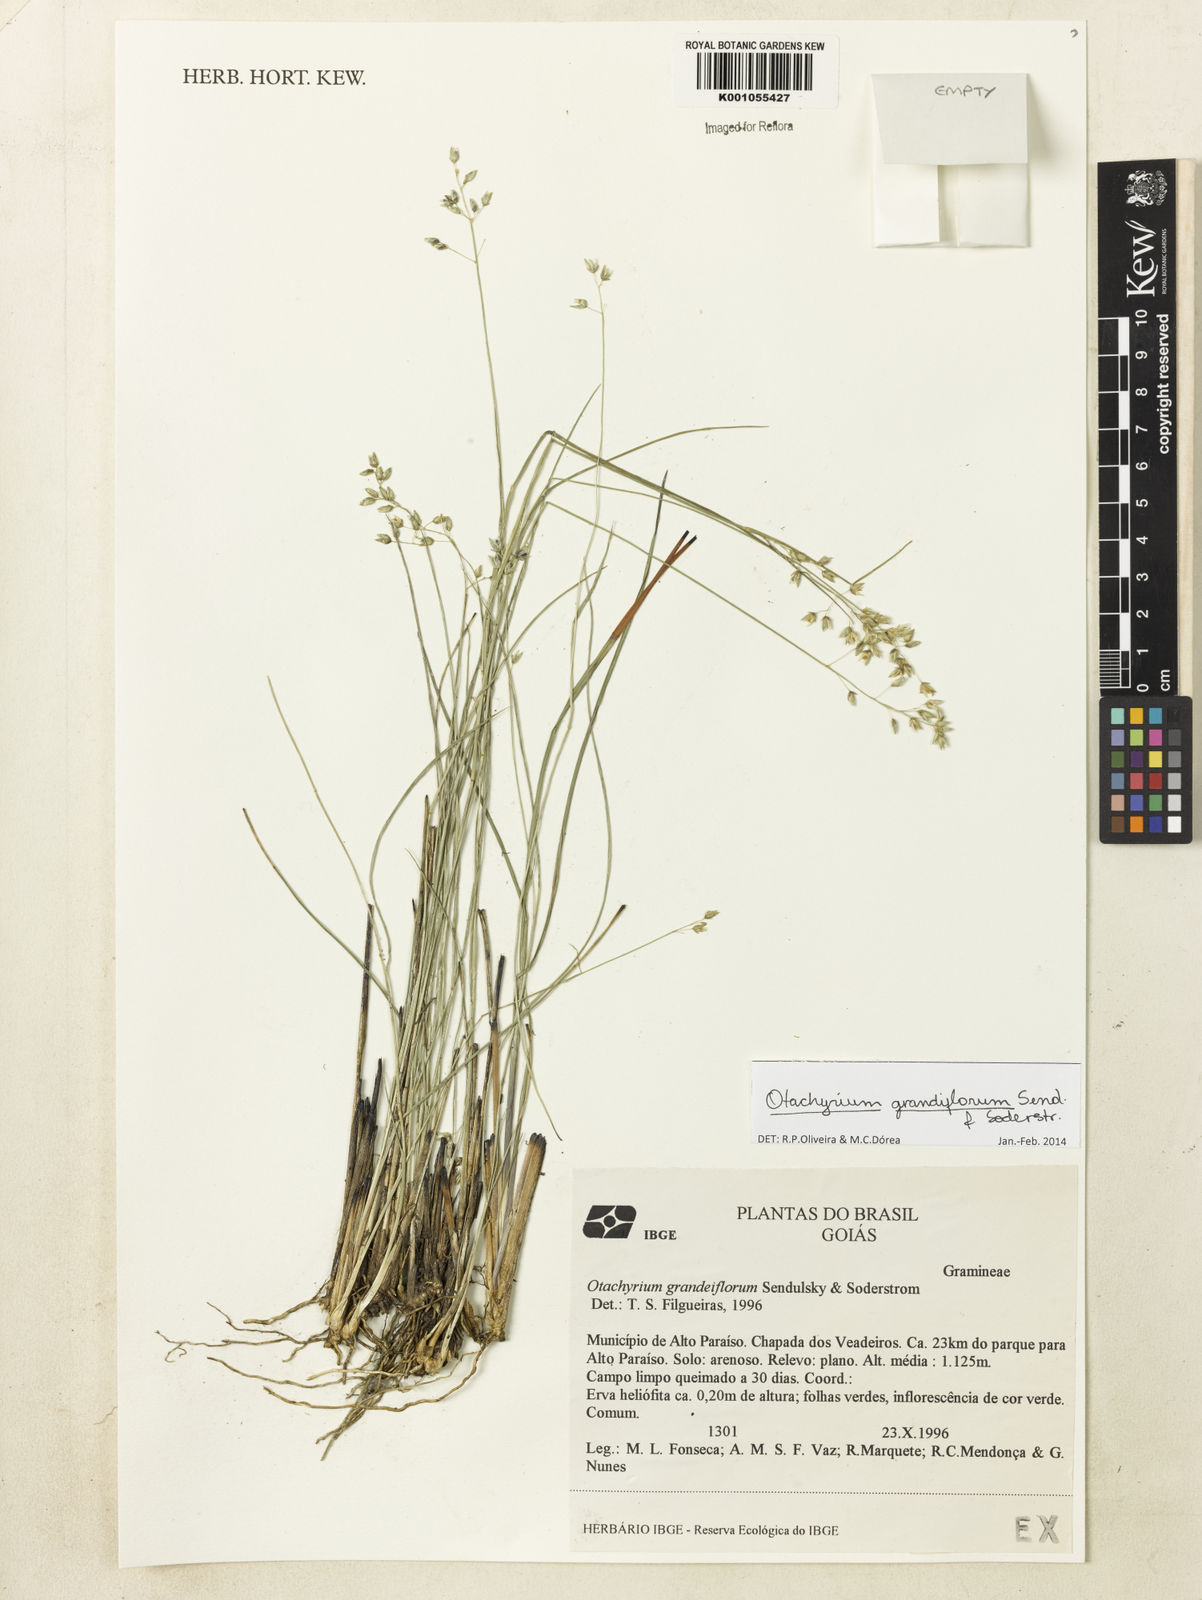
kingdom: Plantae
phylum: Tracheophyta
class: Liliopsida
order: Poales
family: Poaceae
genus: Otachyrium
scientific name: Otachyrium grandiflorum
